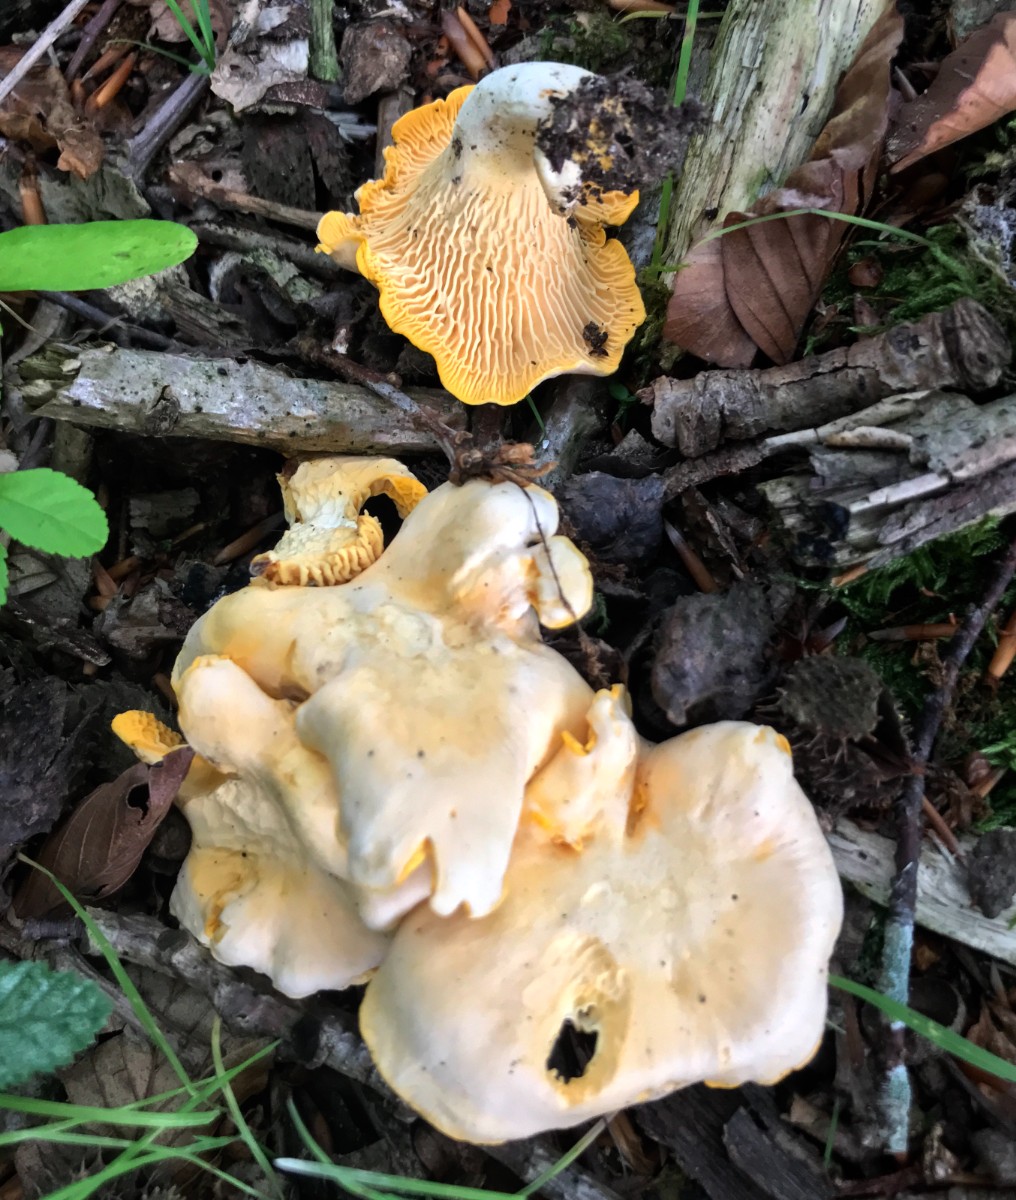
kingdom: Fungi
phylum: Basidiomycota
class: Agaricomycetes
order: Cantharellales
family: Hydnaceae
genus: Cantharellus
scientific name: Cantharellus cibarius
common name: almindelig kantarel
